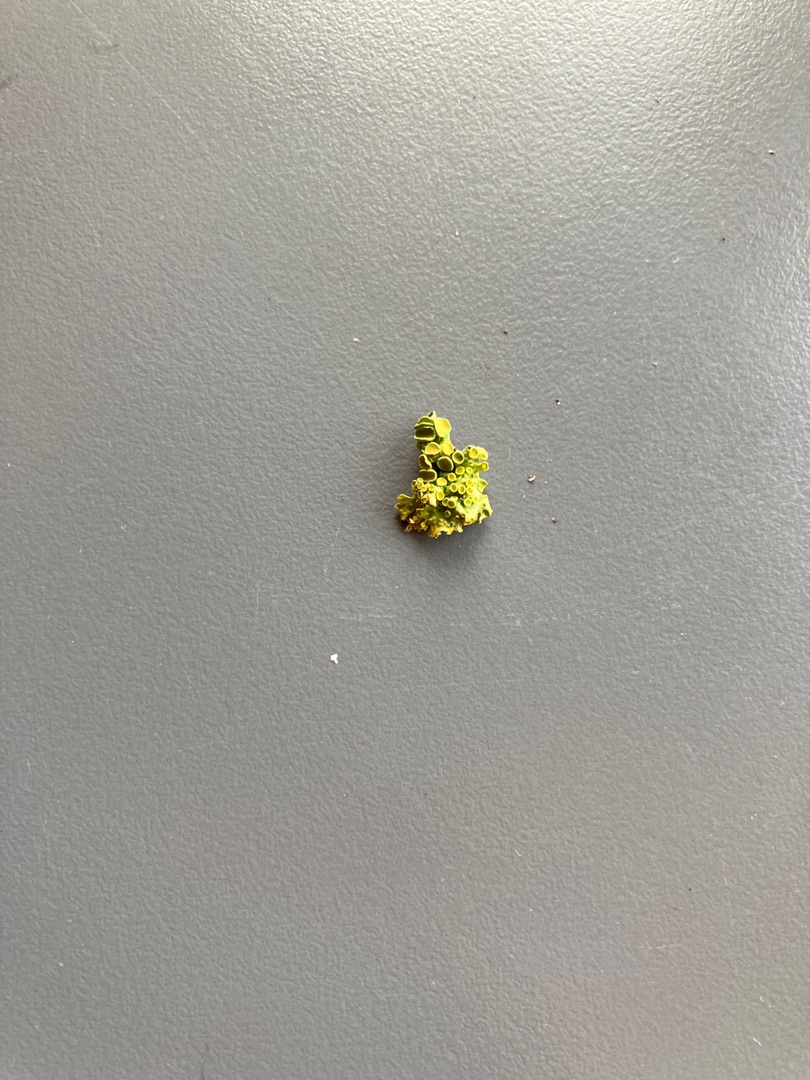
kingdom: Fungi
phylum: Ascomycota
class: Lecanoromycetes
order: Teloschistales
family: Teloschistaceae
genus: Xanthoria
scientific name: Xanthoria parietina
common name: Almindelig væggelav
